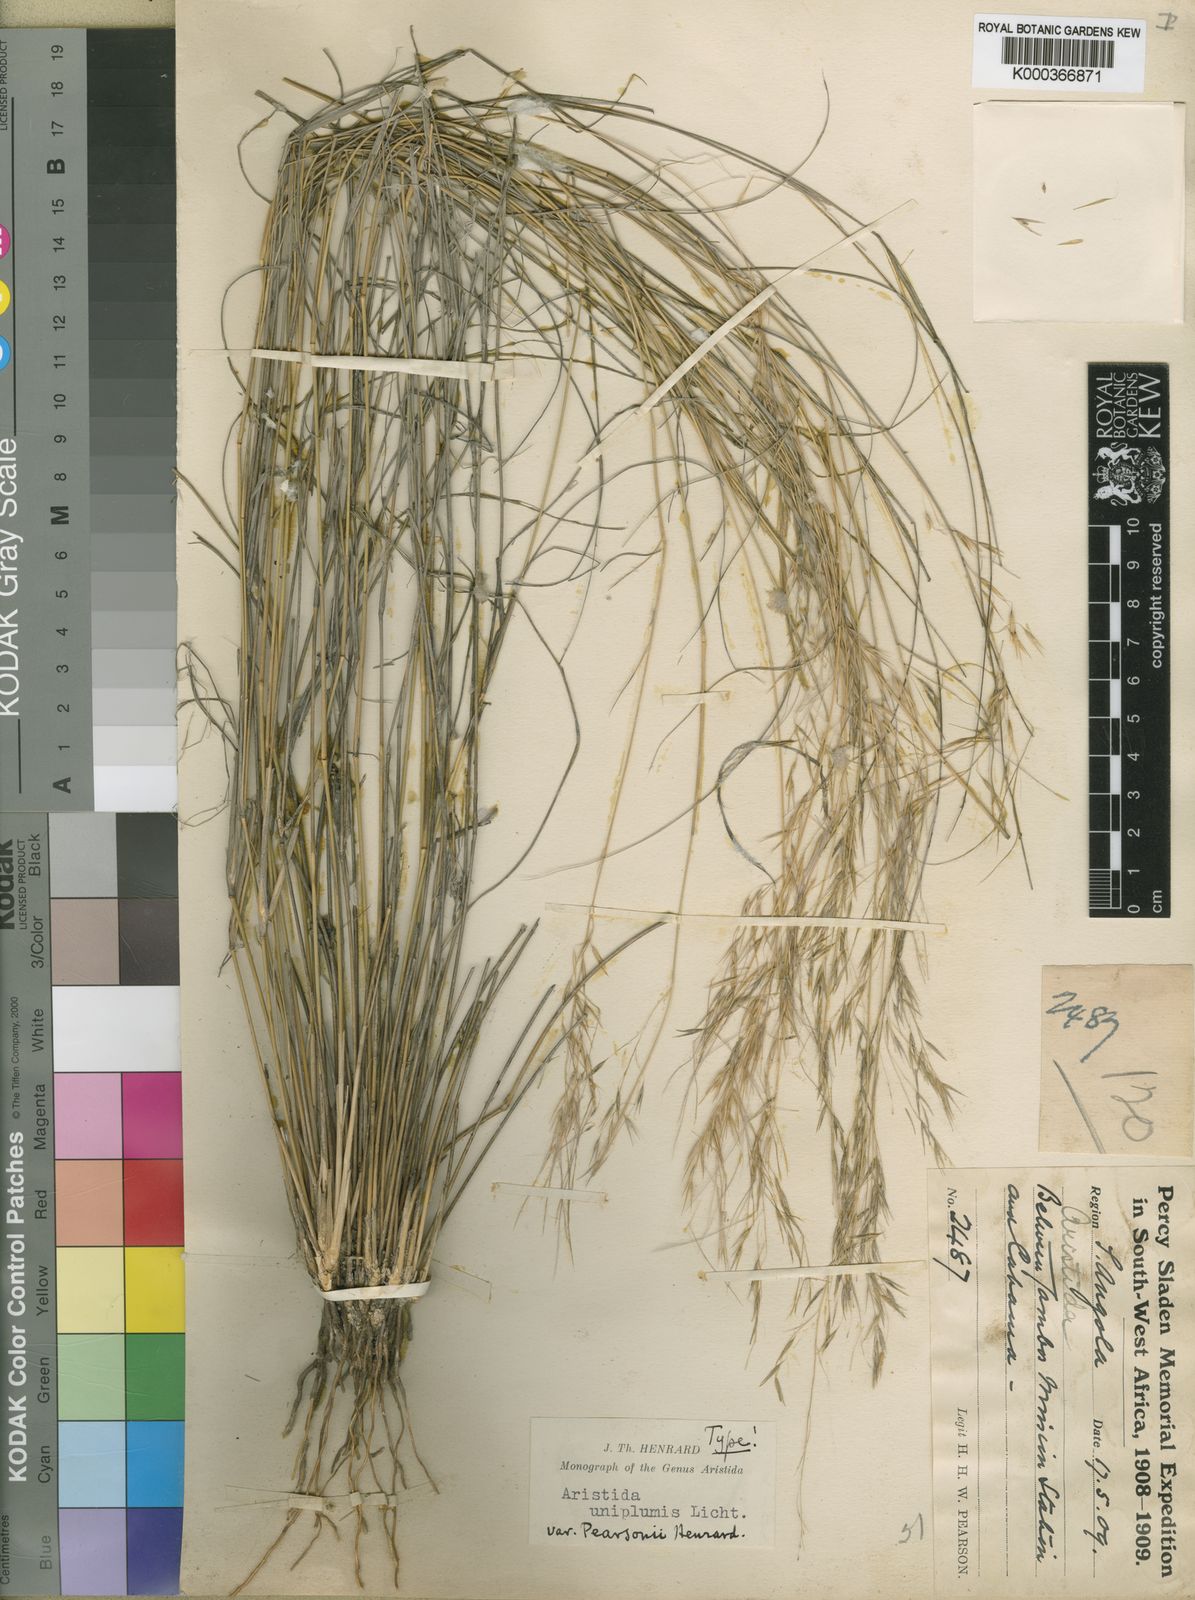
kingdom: Plantae
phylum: Tracheophyta
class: Liliopsida
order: Poales
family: Poaceae
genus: Stipagrostis
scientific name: Stipagrostis uniplumis
